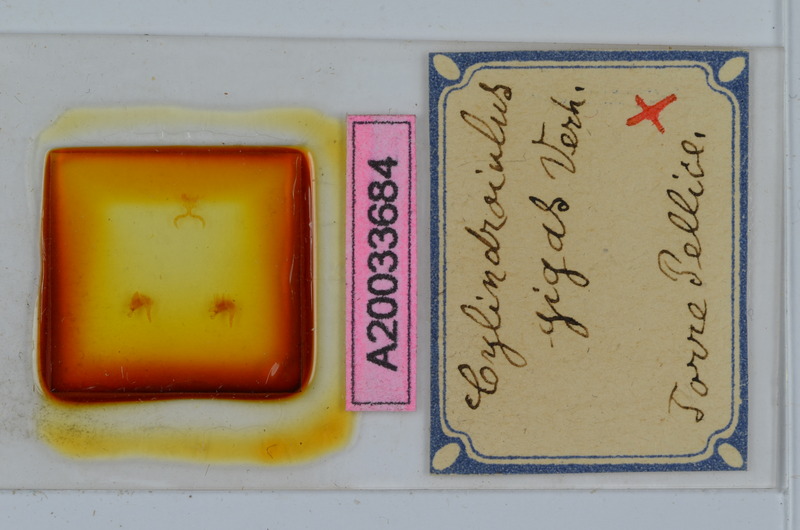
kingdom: Animalia
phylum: Arthropoda
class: Diplopoda
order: Julida
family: Julidae
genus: Cylindroiulus
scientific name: Cylindroiulus gigas
